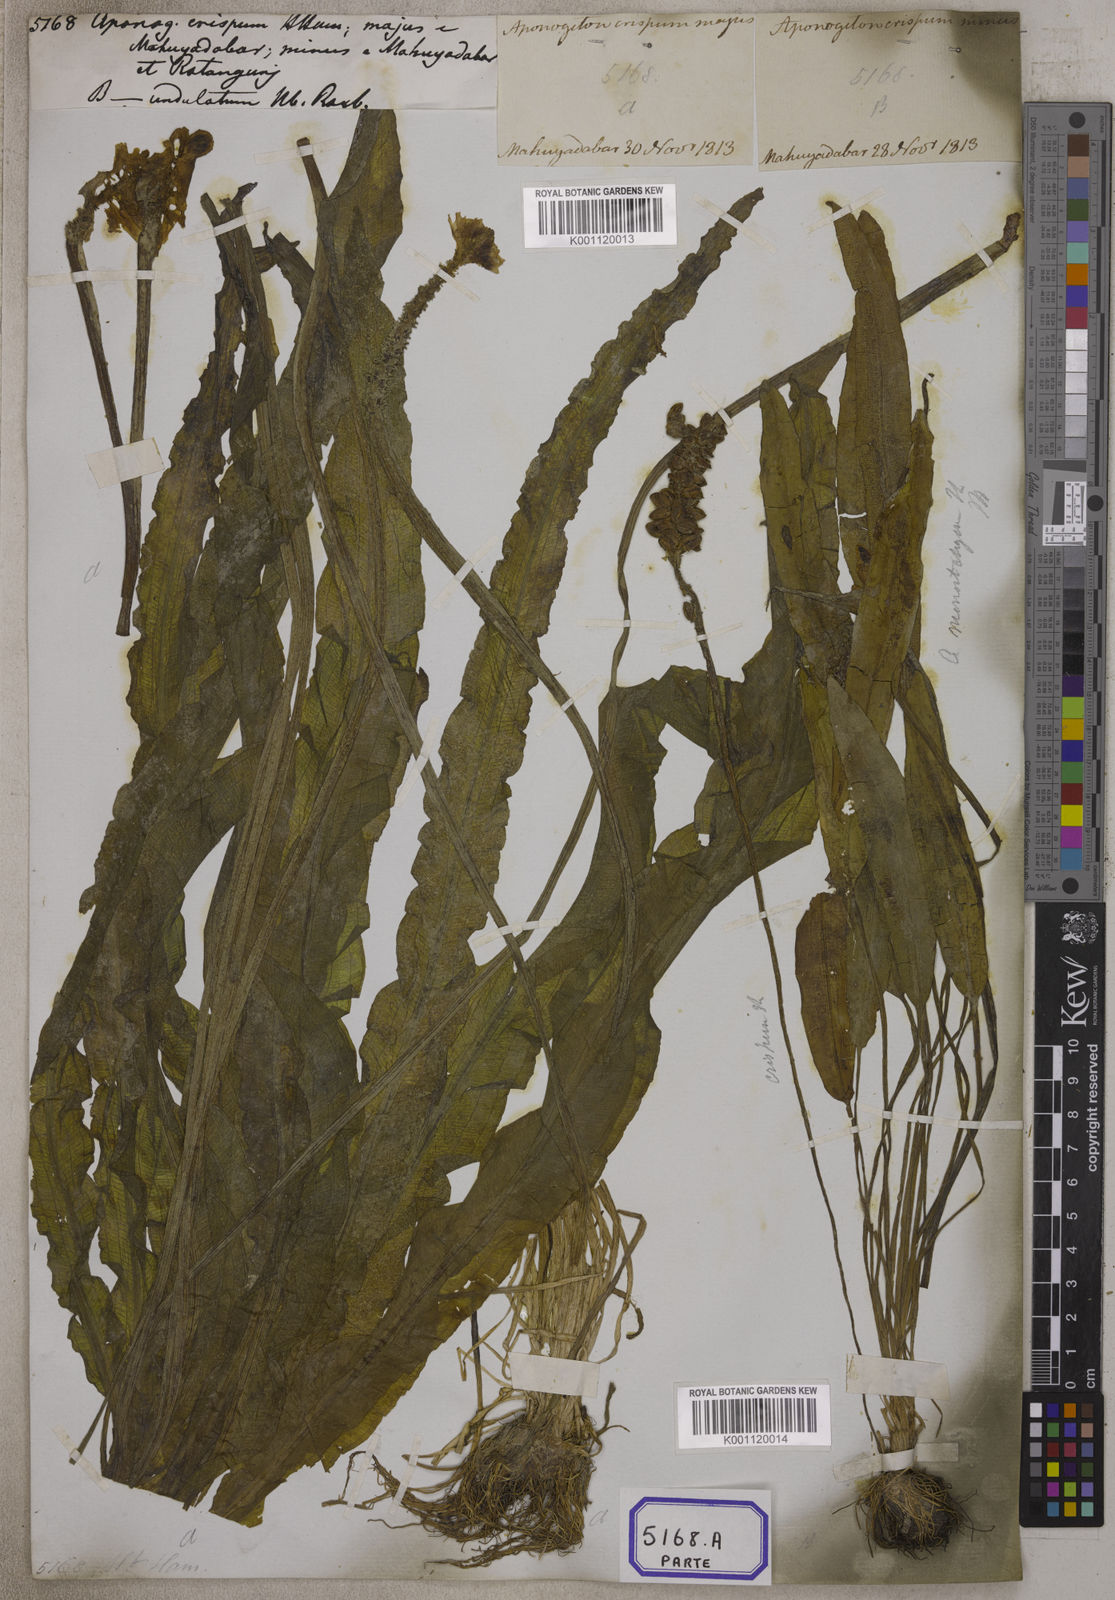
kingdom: Plantae
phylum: Tracheophyta
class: Liliopsida
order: Alismatales
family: Aponogetonaceae
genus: Aponogeton
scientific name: Aponogeton crispus
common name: Crinkled aponogeton
